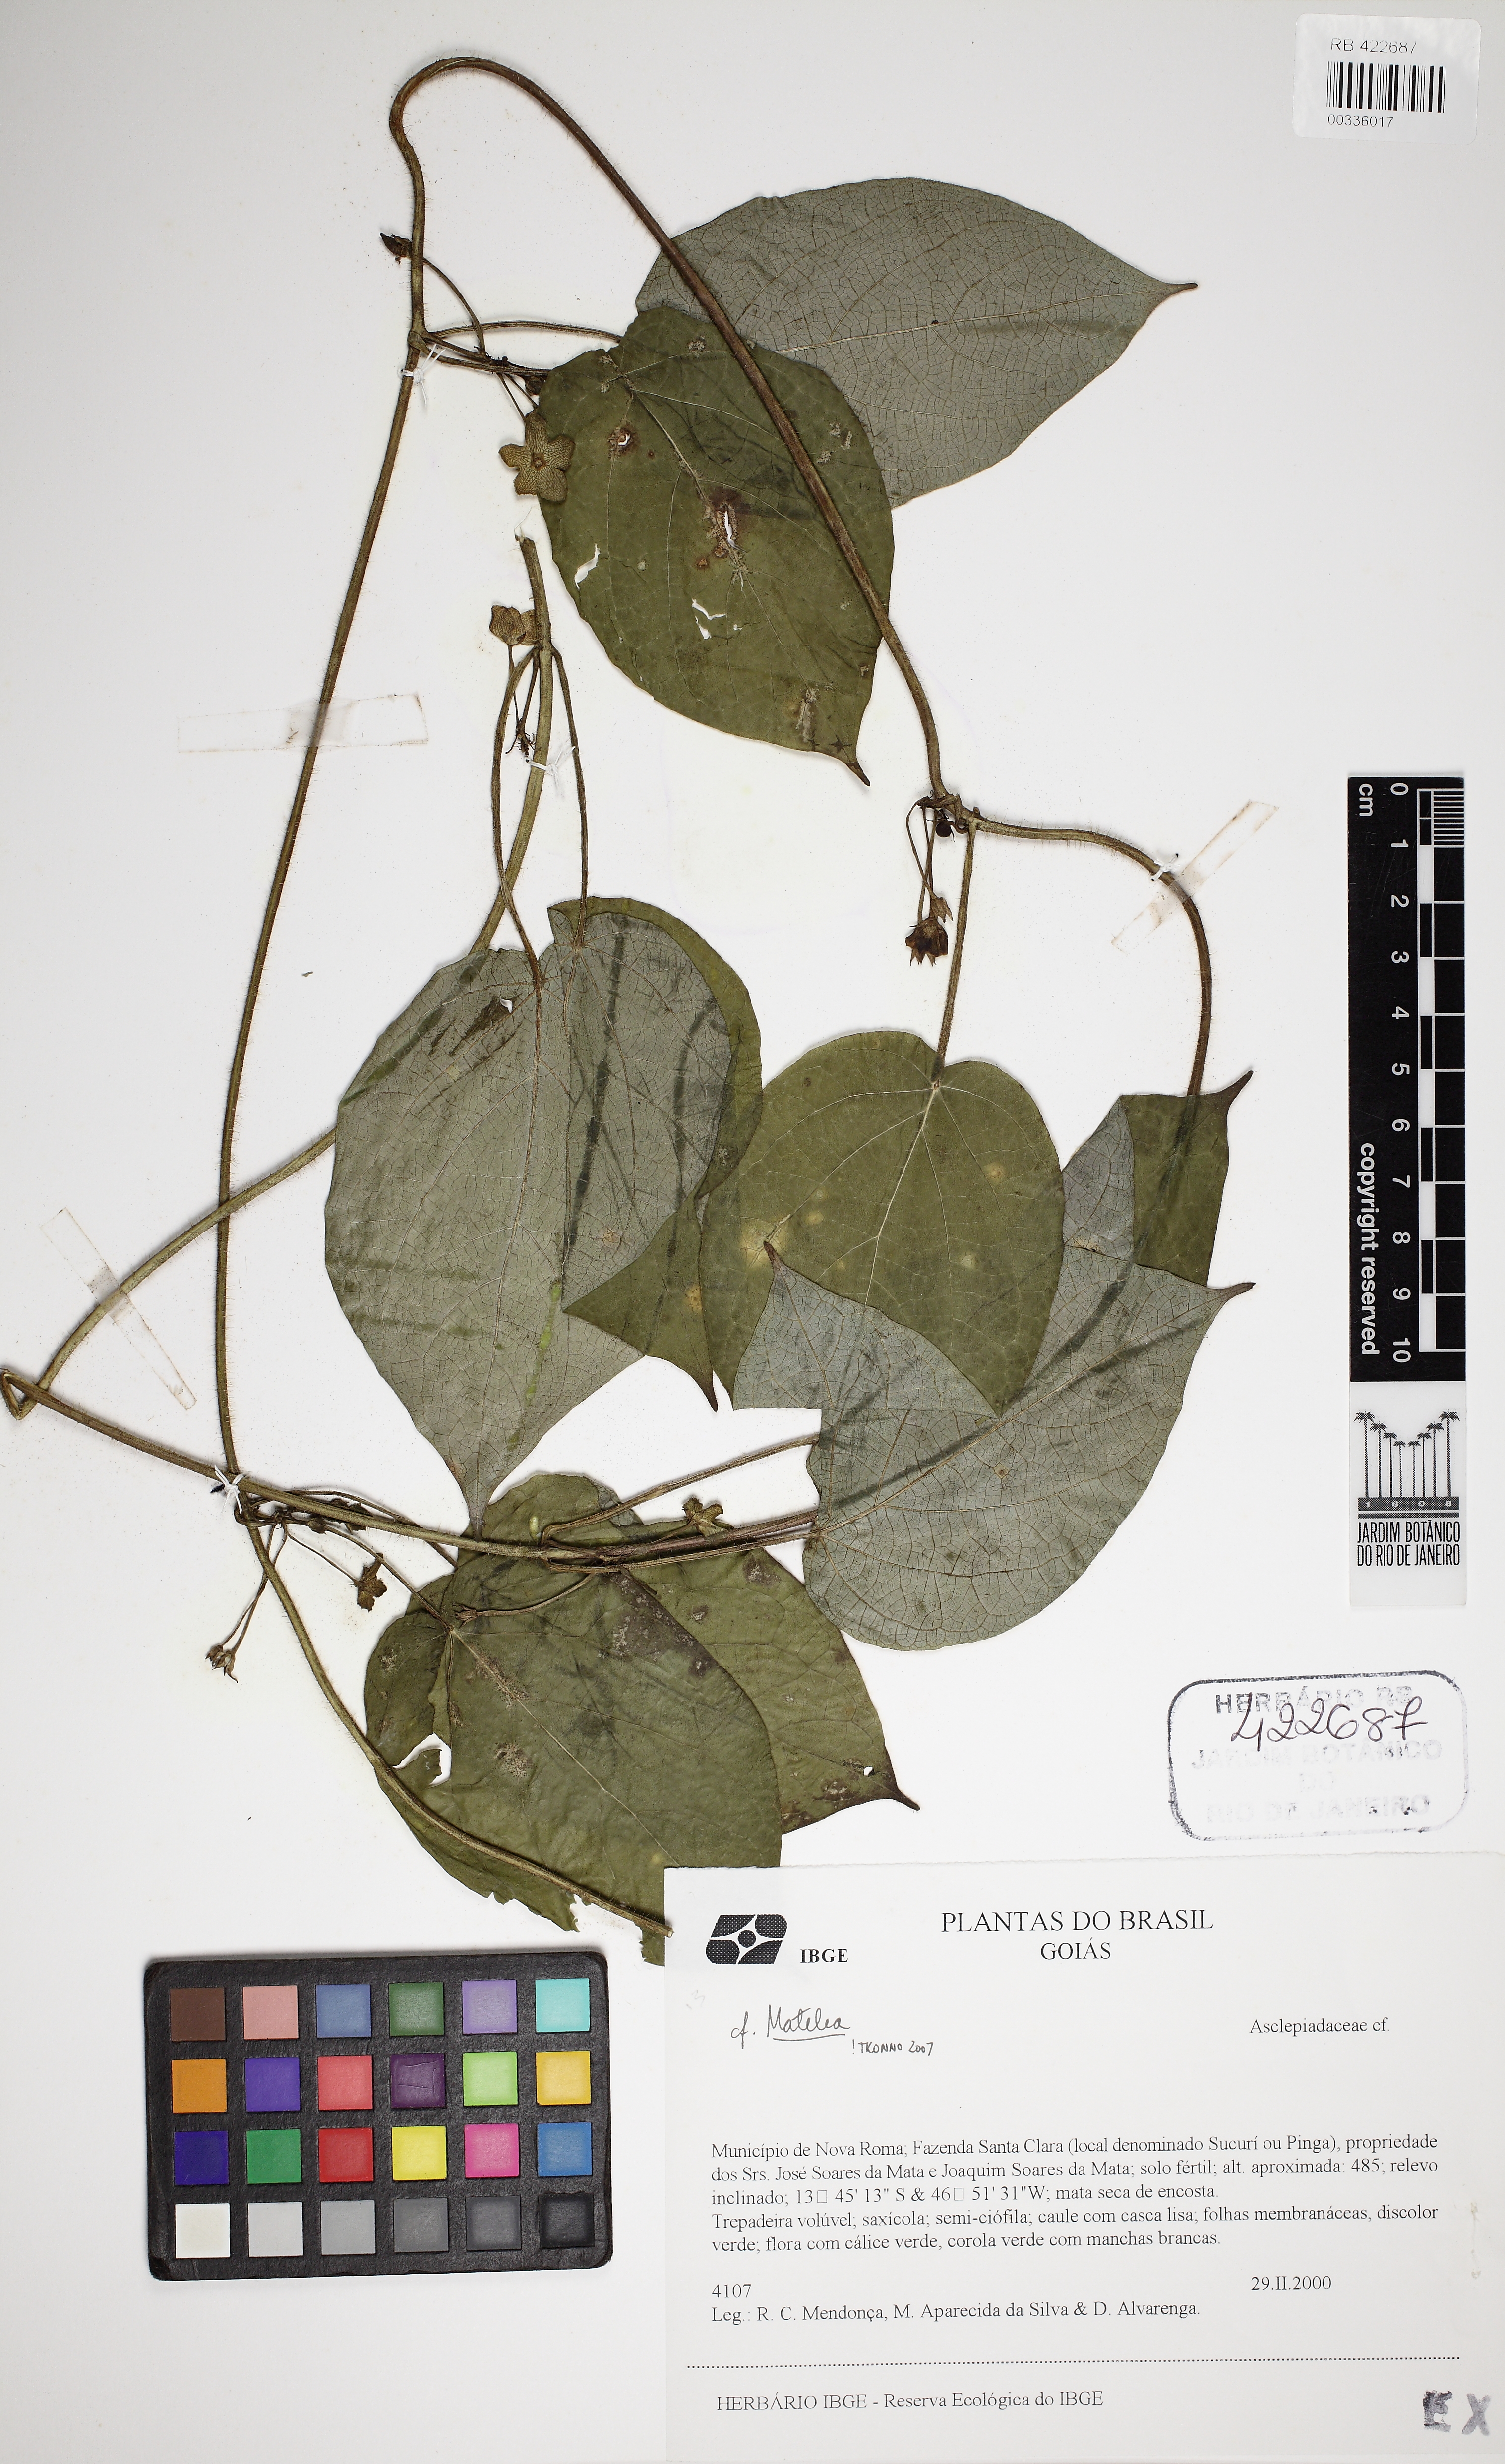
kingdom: Plantae
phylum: Tracheophyta
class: Magnoliopsida
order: Gentianales
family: Apocynaceae
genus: Matelea
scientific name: Matelea
